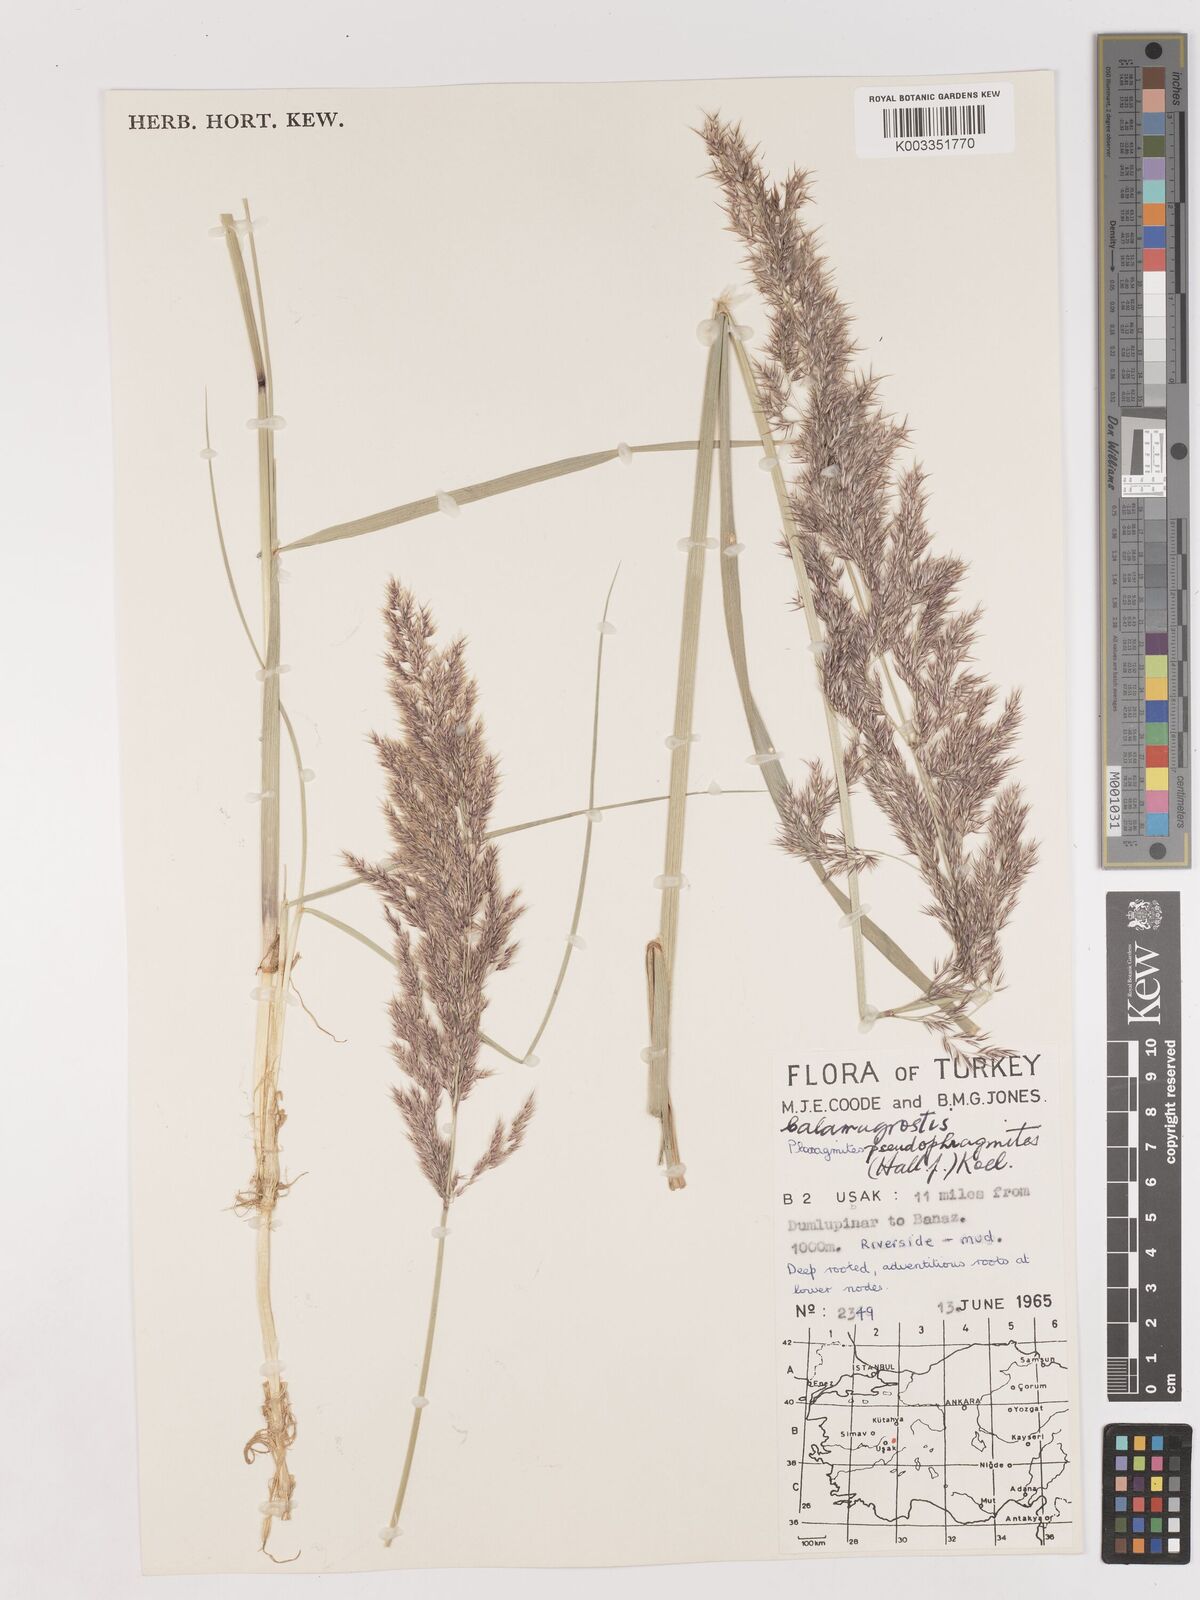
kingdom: Plantae
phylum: Tracheophyta
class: Liliopsida
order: Poales
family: Poaceae
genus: Calamagrostis
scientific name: Calamagrostis pseudophragmites
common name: Coastal small-reed
